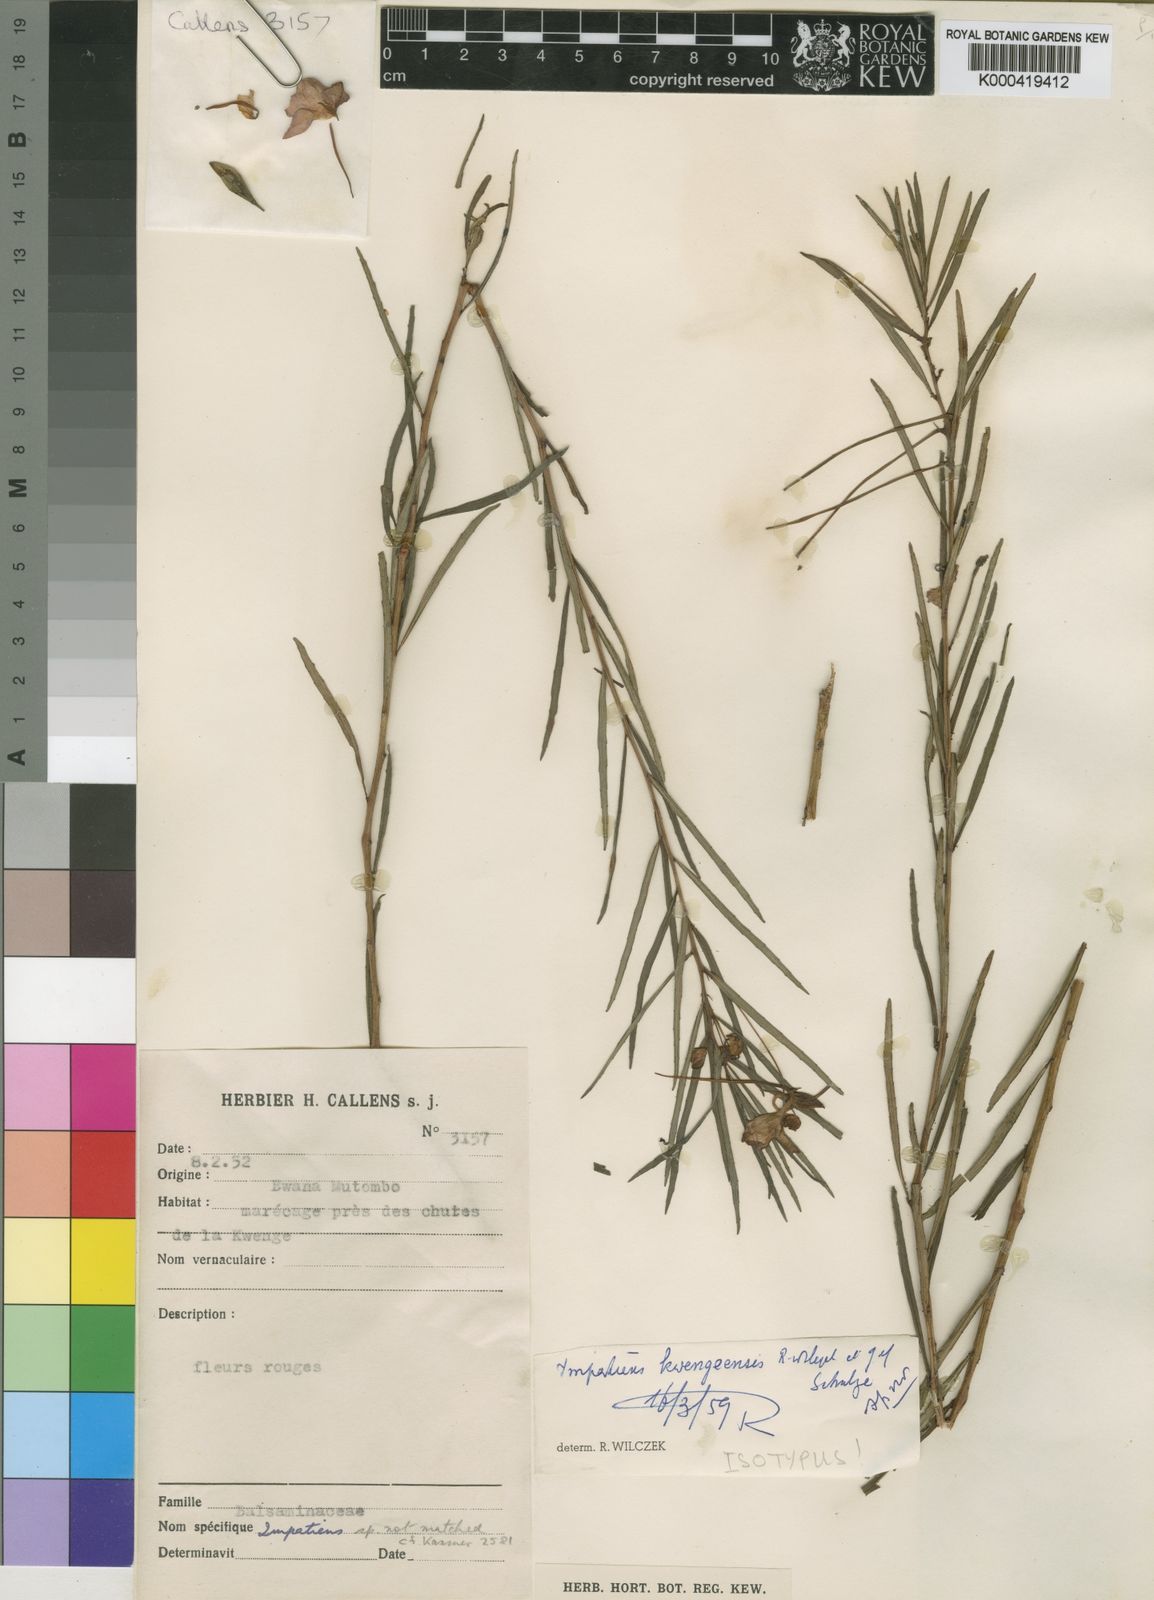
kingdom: Plantae
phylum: Tracheophyta
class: Magnoliopsida
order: Ericales
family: Balsaminaceae
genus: Impatiens
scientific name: Impatiens kwengeensis
